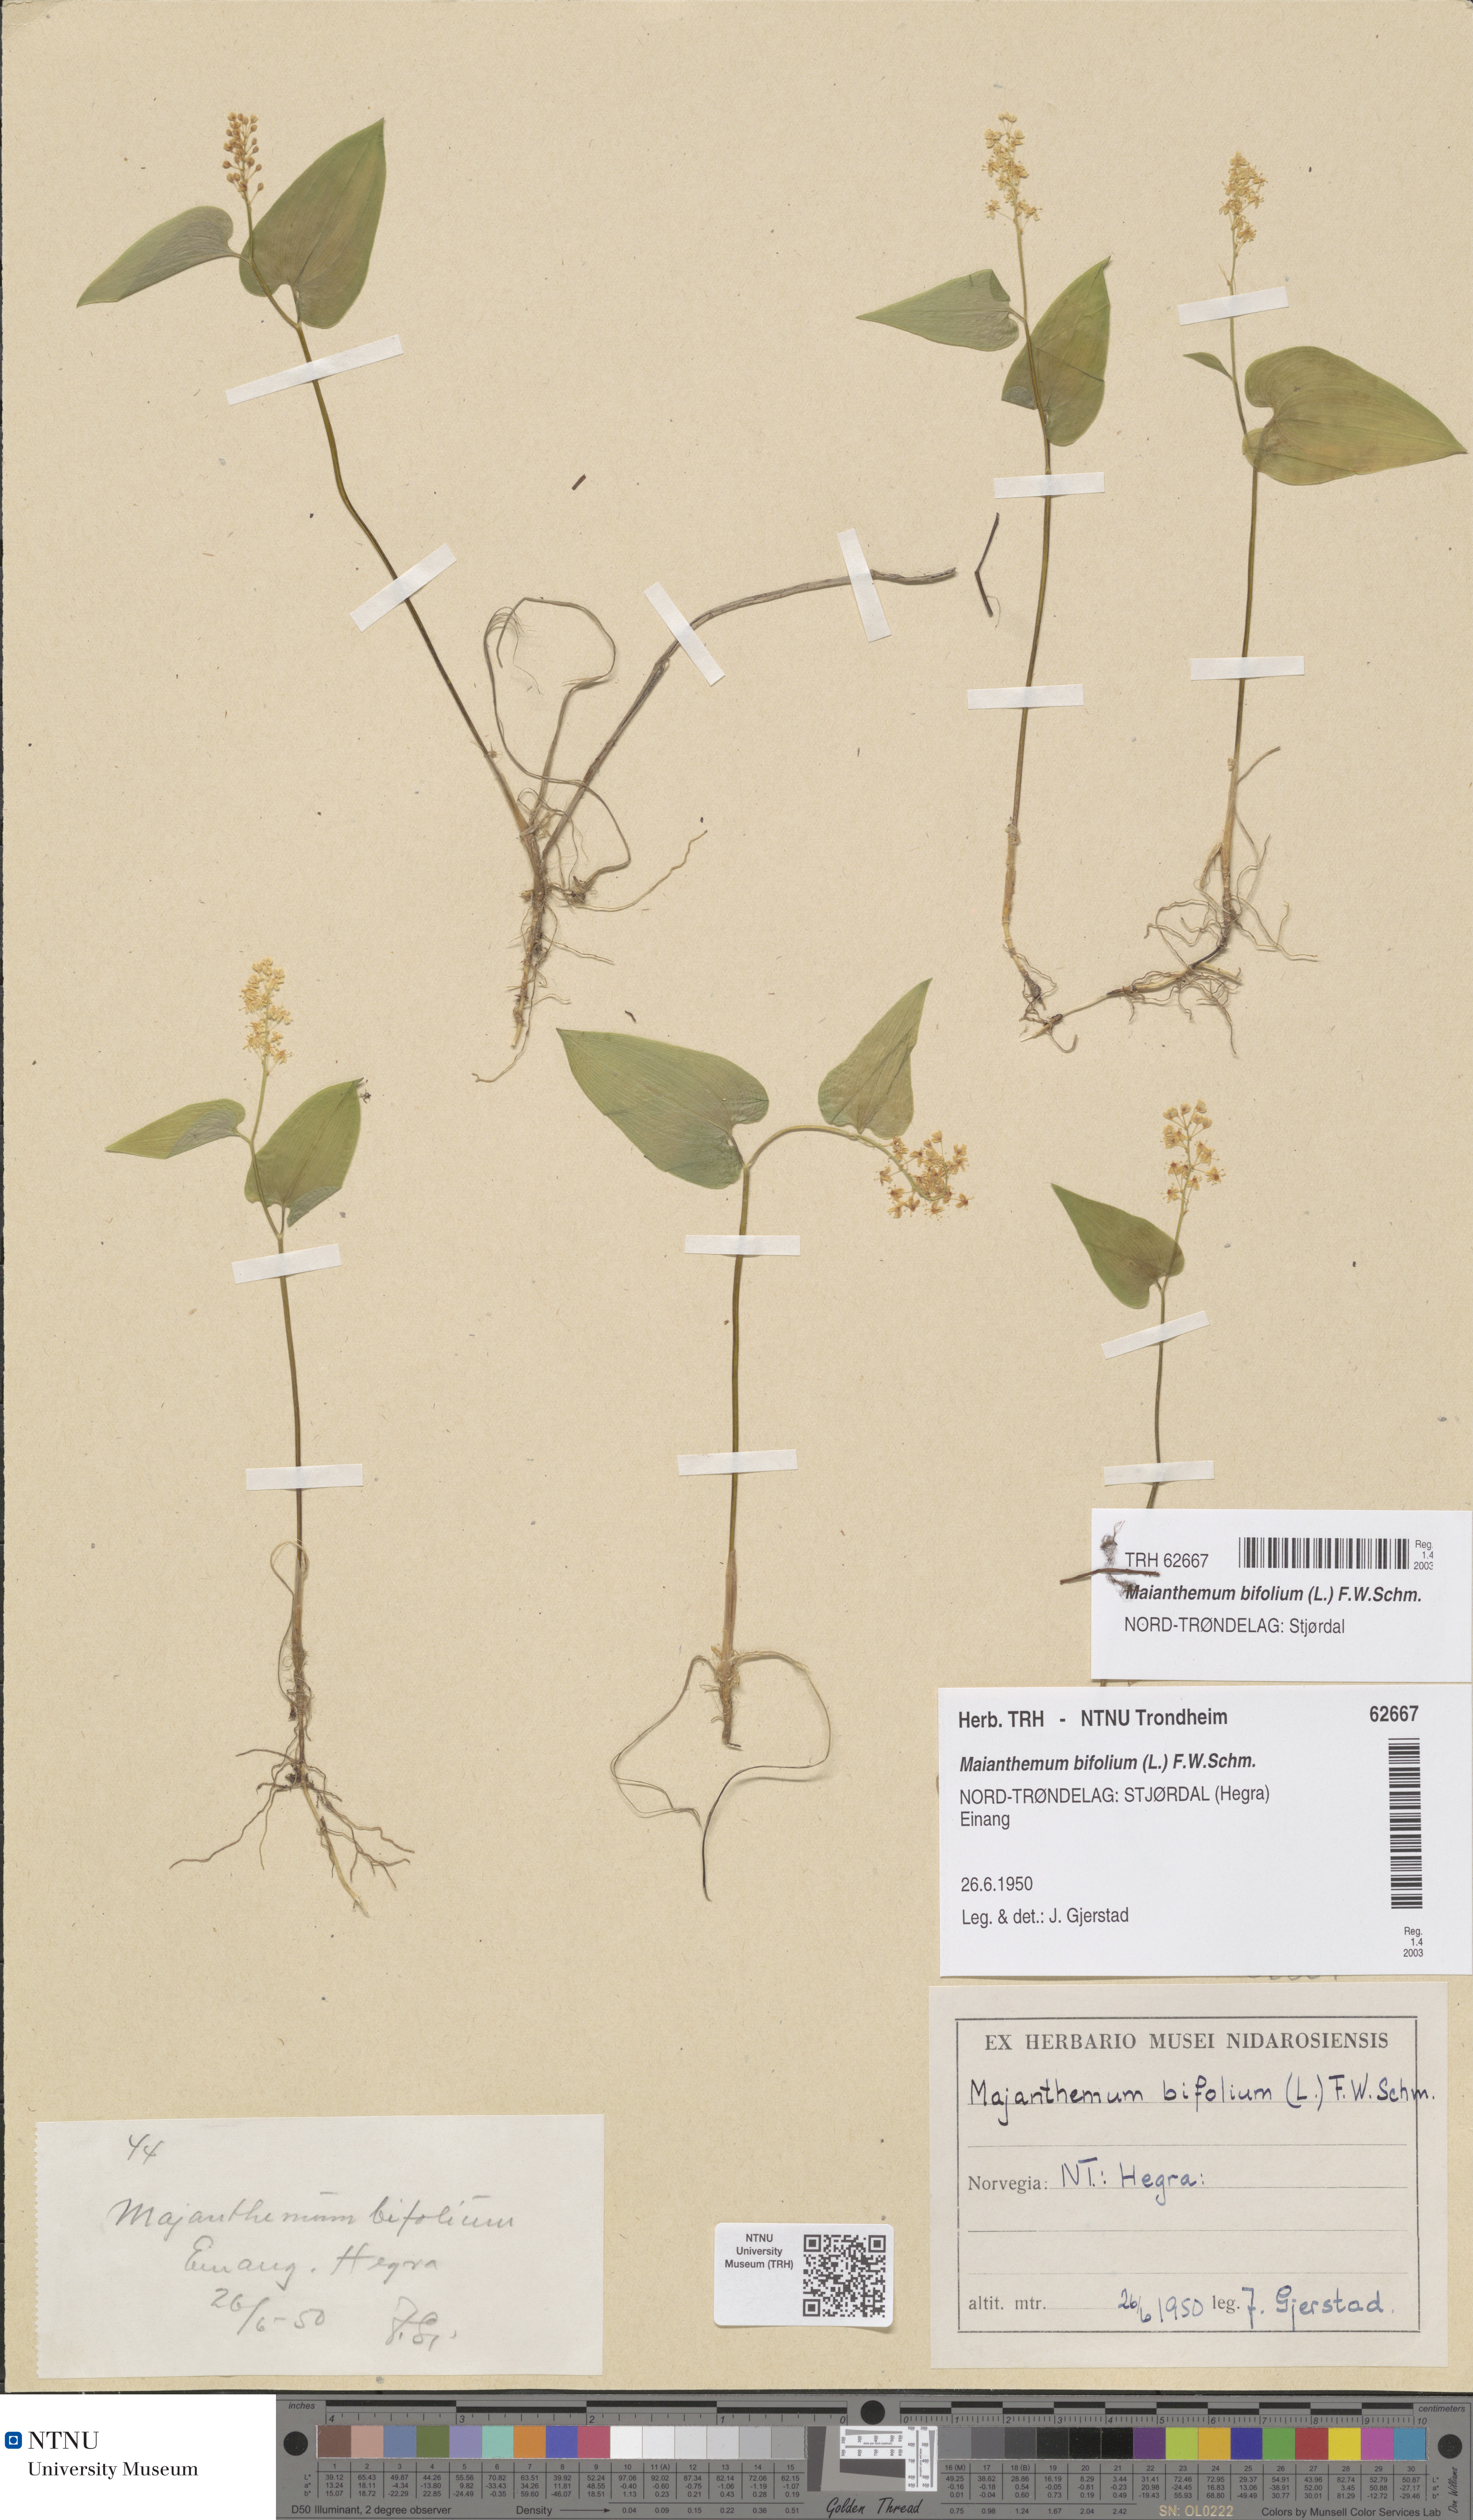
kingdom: Plantae
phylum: Tracheophyta
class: Liliopsida
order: Asparagales
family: Asparagaceae
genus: Maianthemum
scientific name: Maianthemum bifolium
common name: May lily
